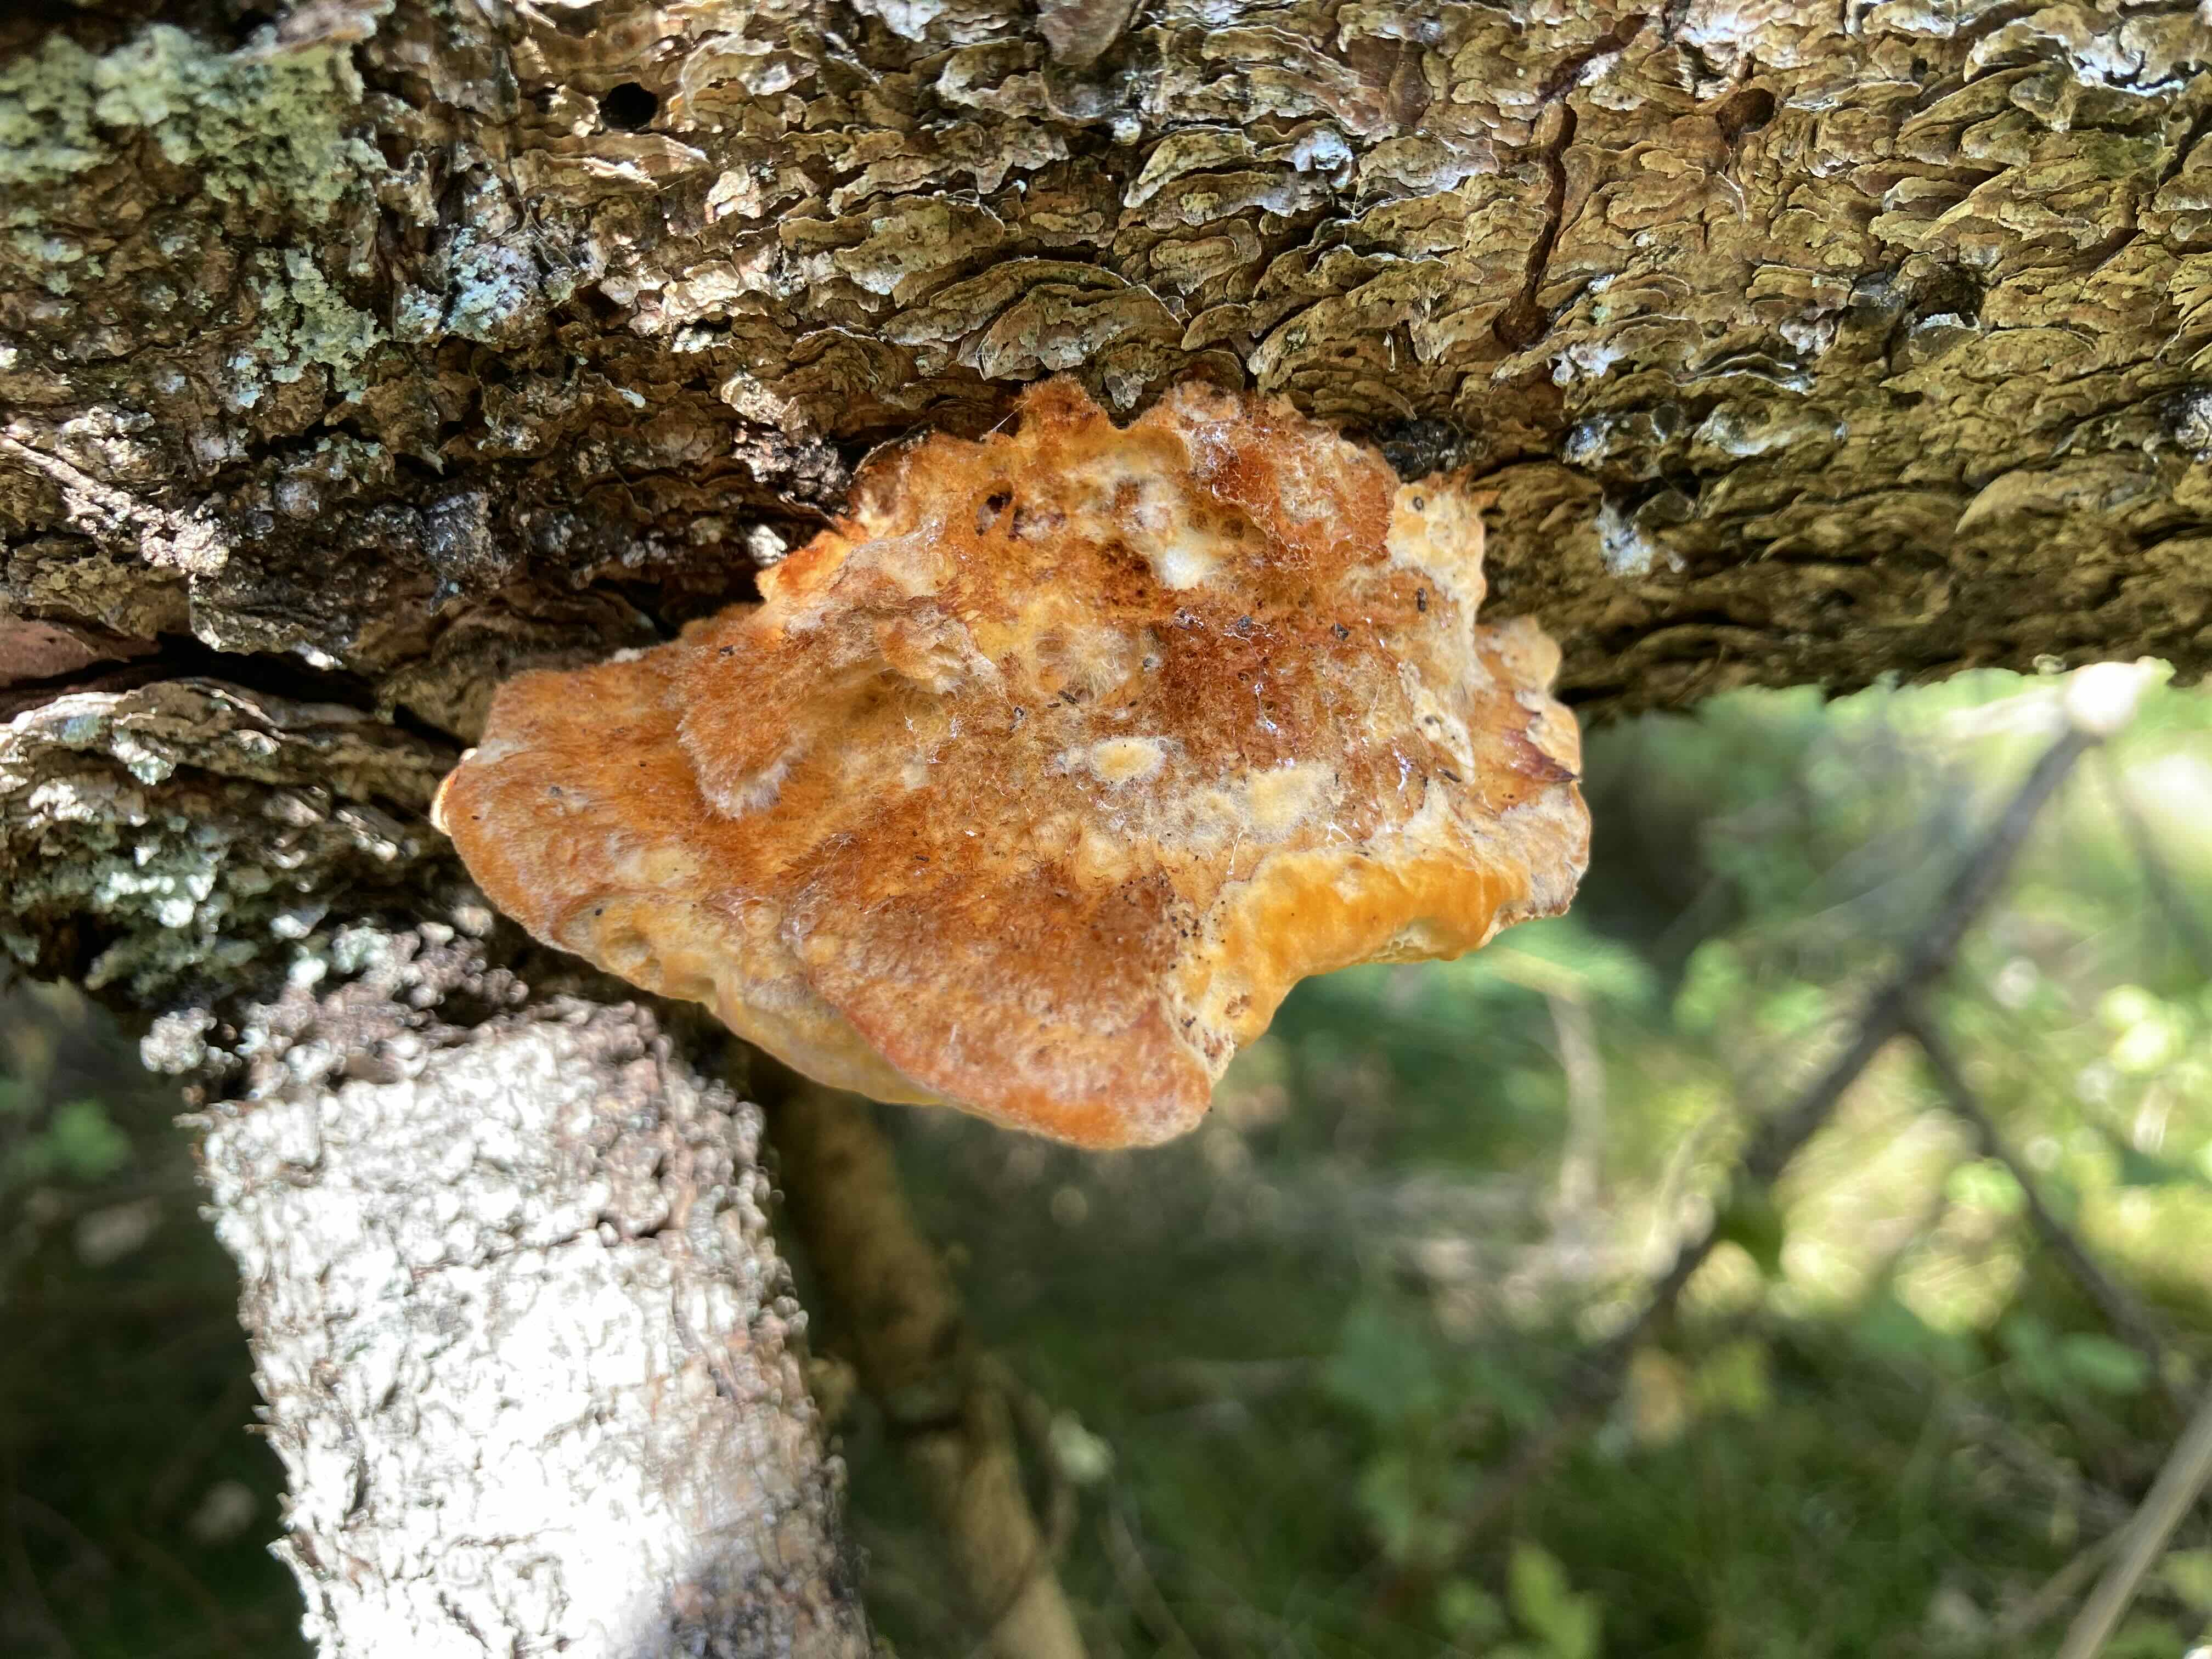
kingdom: Fungi
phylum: Basidiomycota
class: Agaricomycetes
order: Polyporales
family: Pycnoporellaceae
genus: Pycnoporellus
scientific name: Pycnoporellus fulgens
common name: flammeporesvamp
